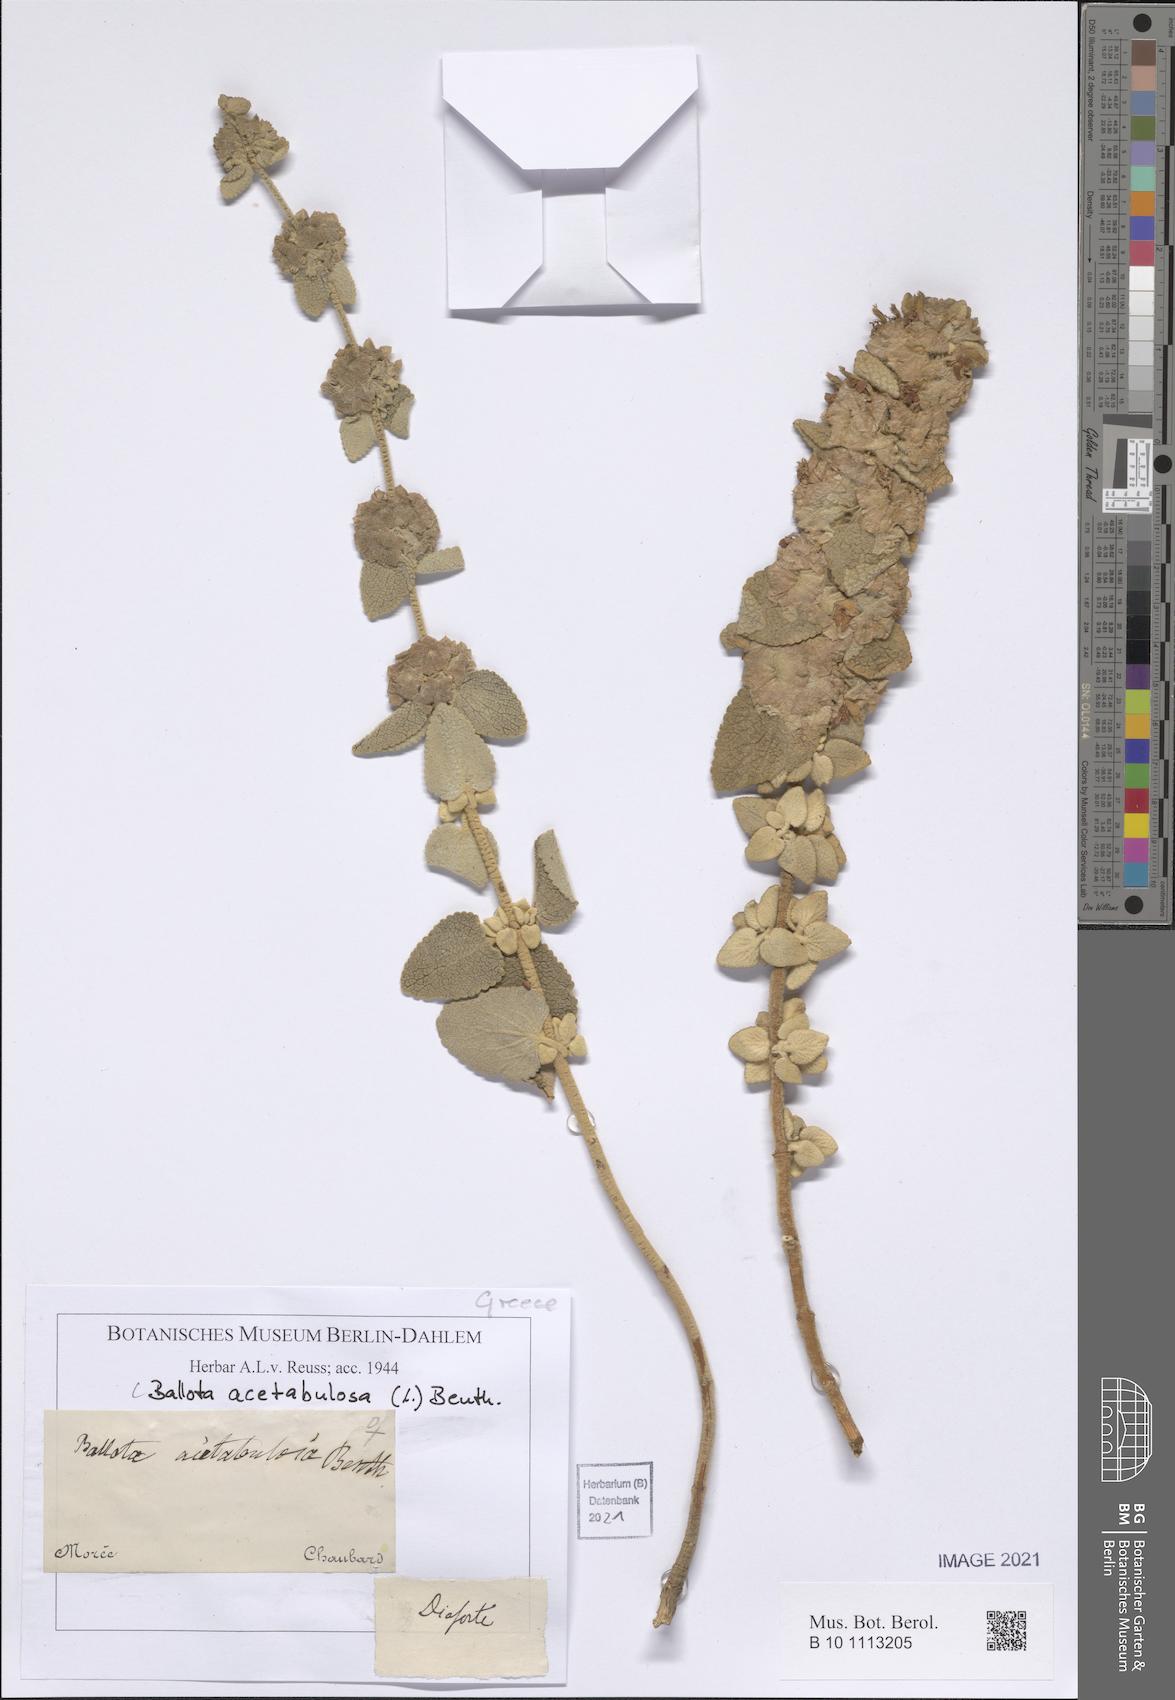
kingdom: Plantae
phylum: Tracheophyta
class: Magnoliopsida
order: Lamiales
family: Lamiaceae
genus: Pseudodictamnus
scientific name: Pseudodictamnus acetabulosus
